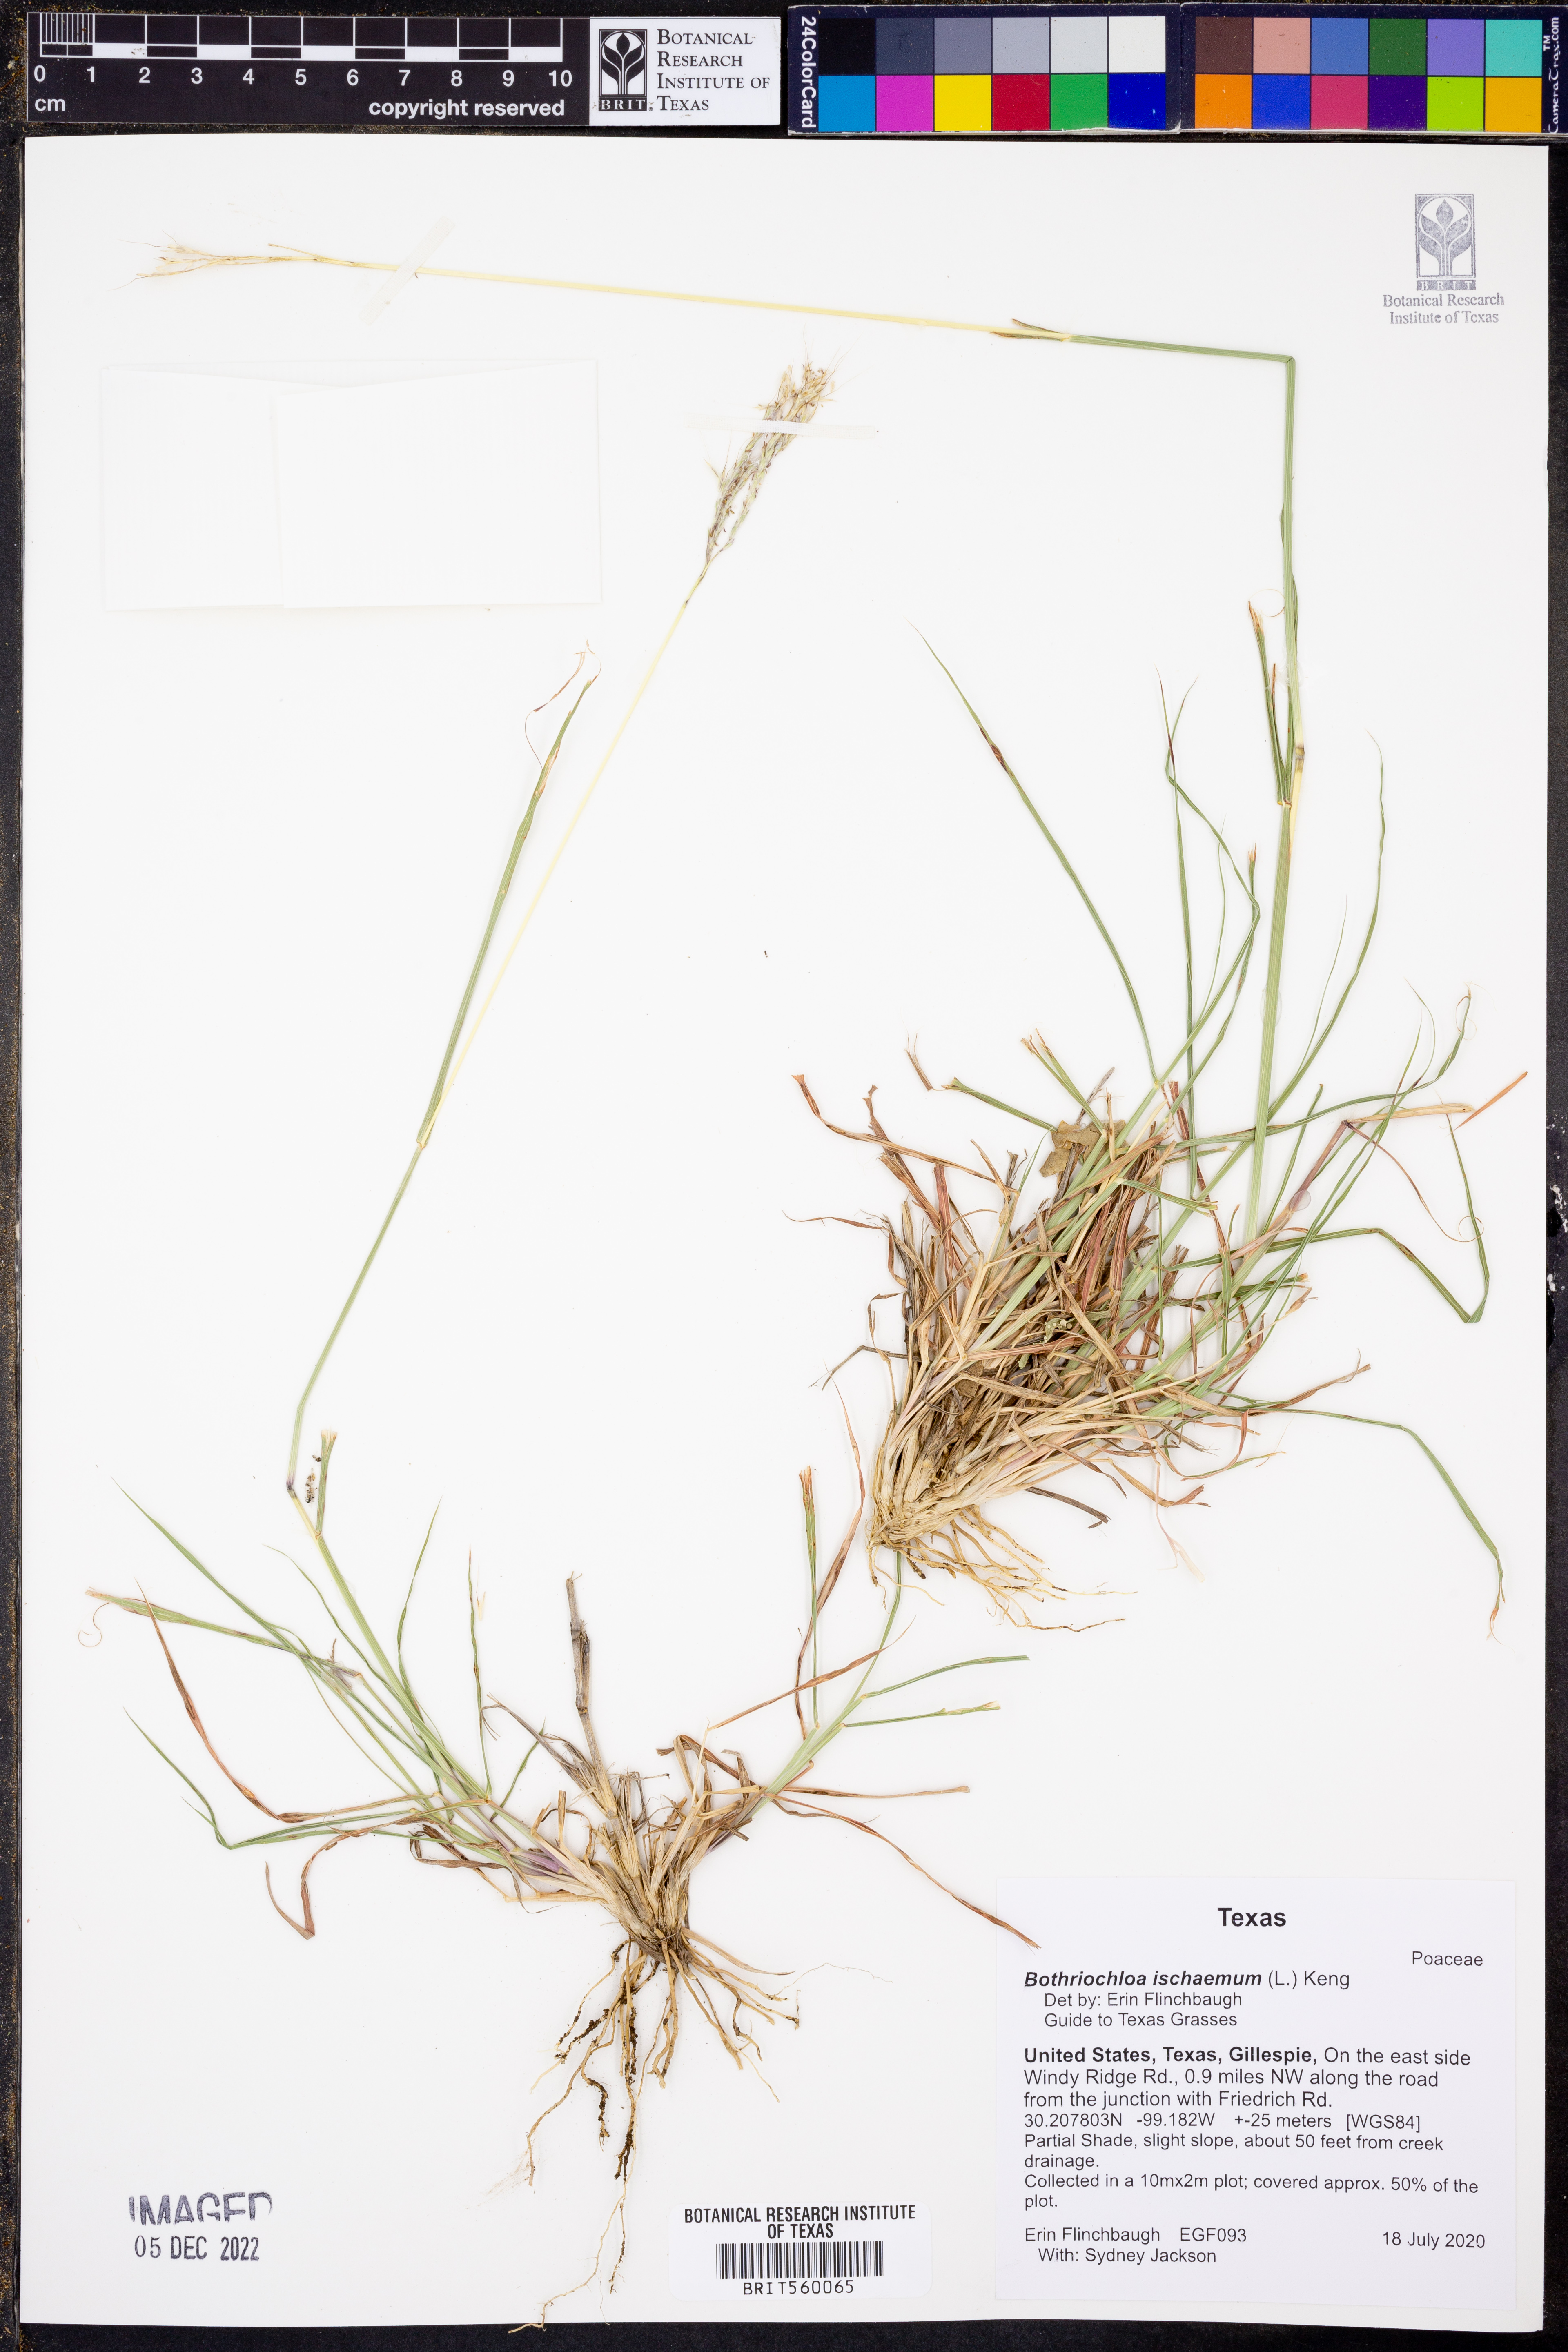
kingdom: Plantae
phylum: Tracheophyta
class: Liliopsida
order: Poales
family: Poaceae
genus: Bothriochloa
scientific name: Bothriochloa ischaemum
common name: Yellow bluestem
